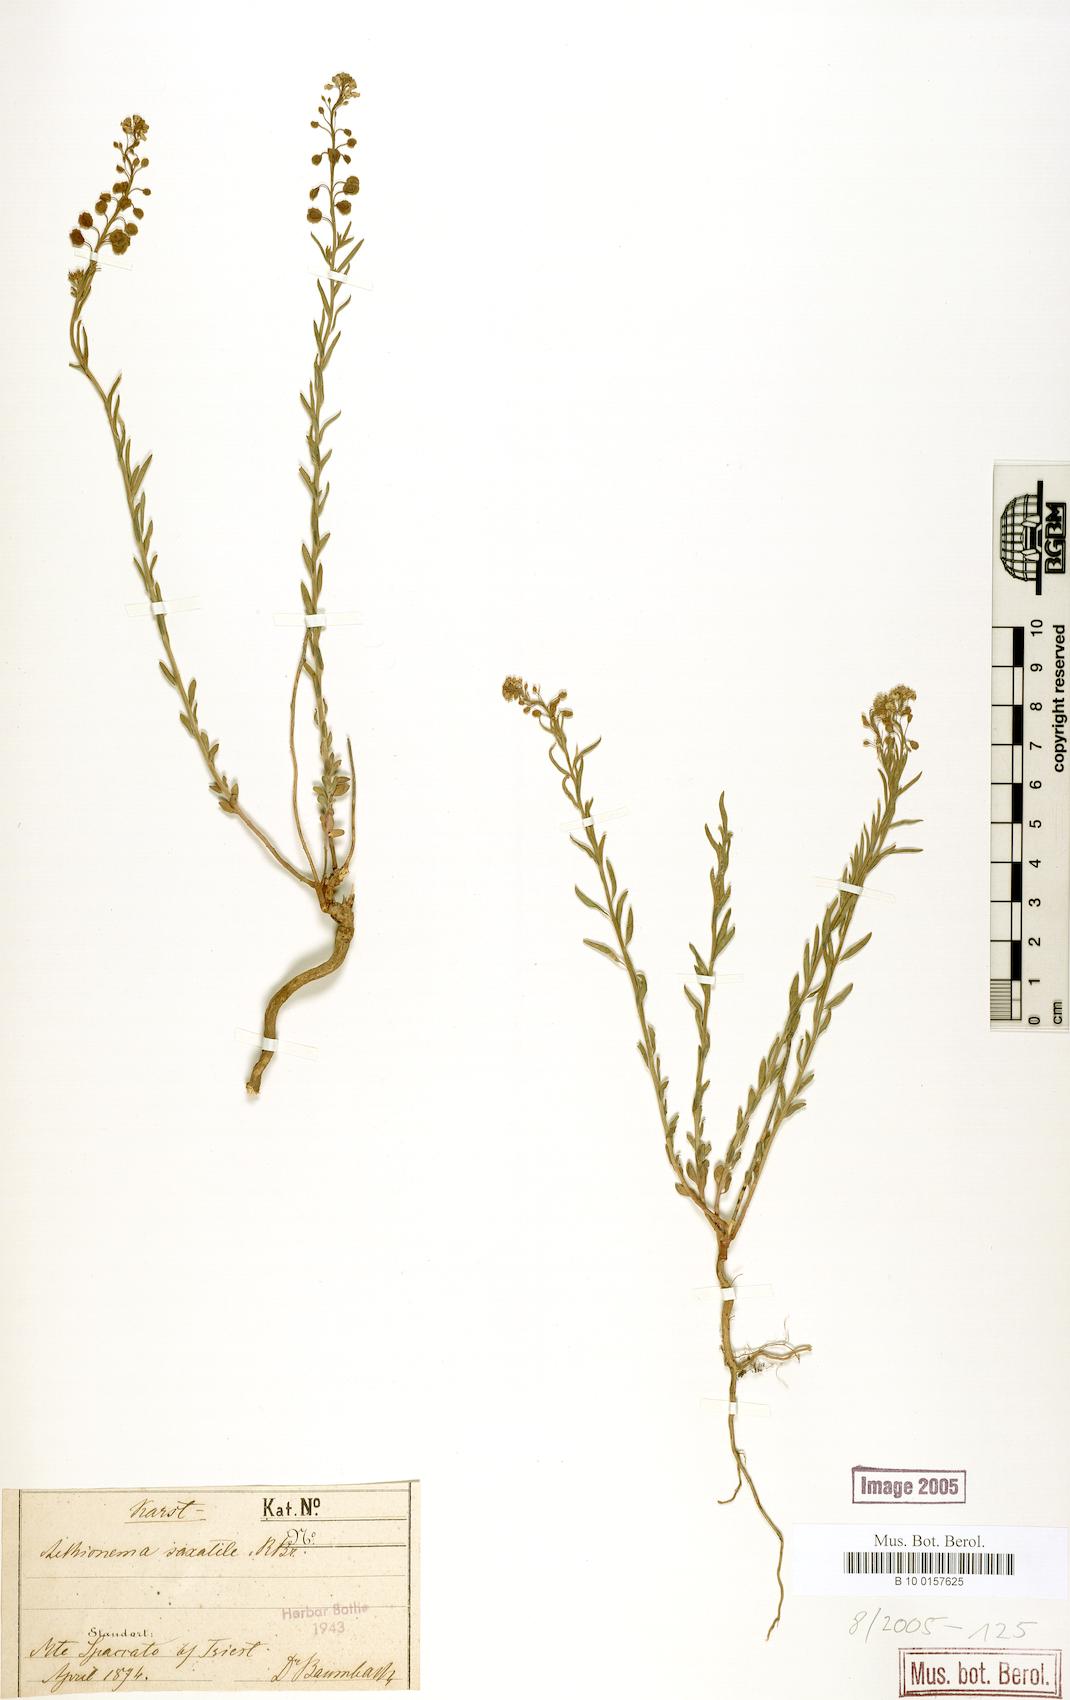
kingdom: Plantae
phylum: Tracheophyta
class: Magnoliopsida
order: Brassicales
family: Brassicaceae
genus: Aethionema
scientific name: Aethionema saxatile
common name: Burnt candytuft
